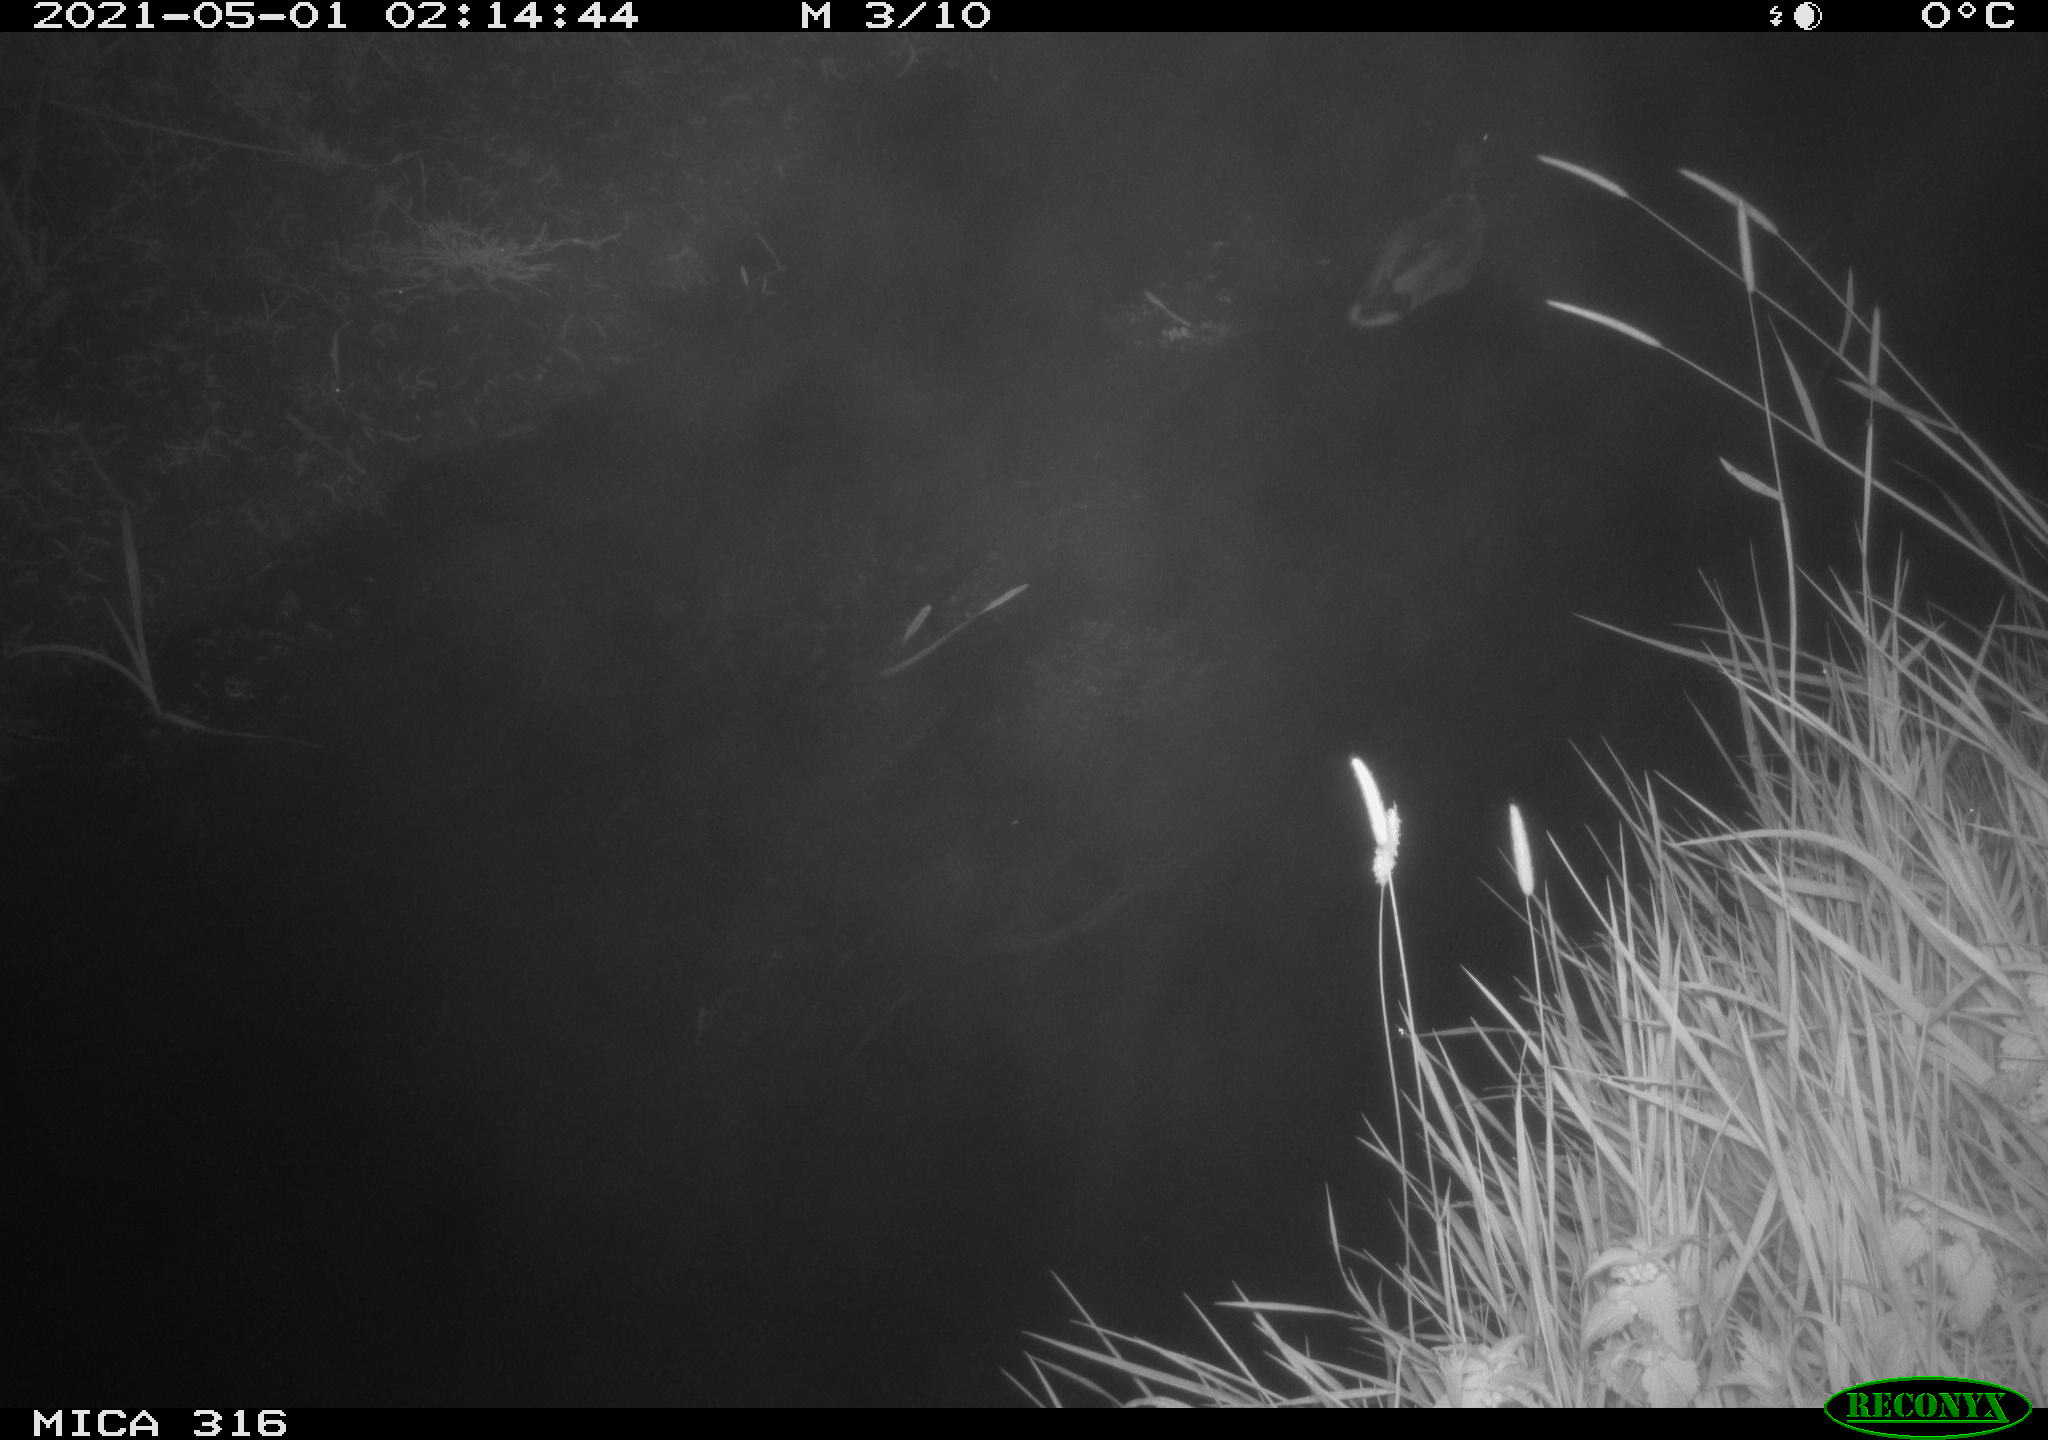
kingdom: Animalia
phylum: Chordata
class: Aves
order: Anseriformes
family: Anatidae
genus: Anas
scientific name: Anas platyrhynchos
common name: Mallard
